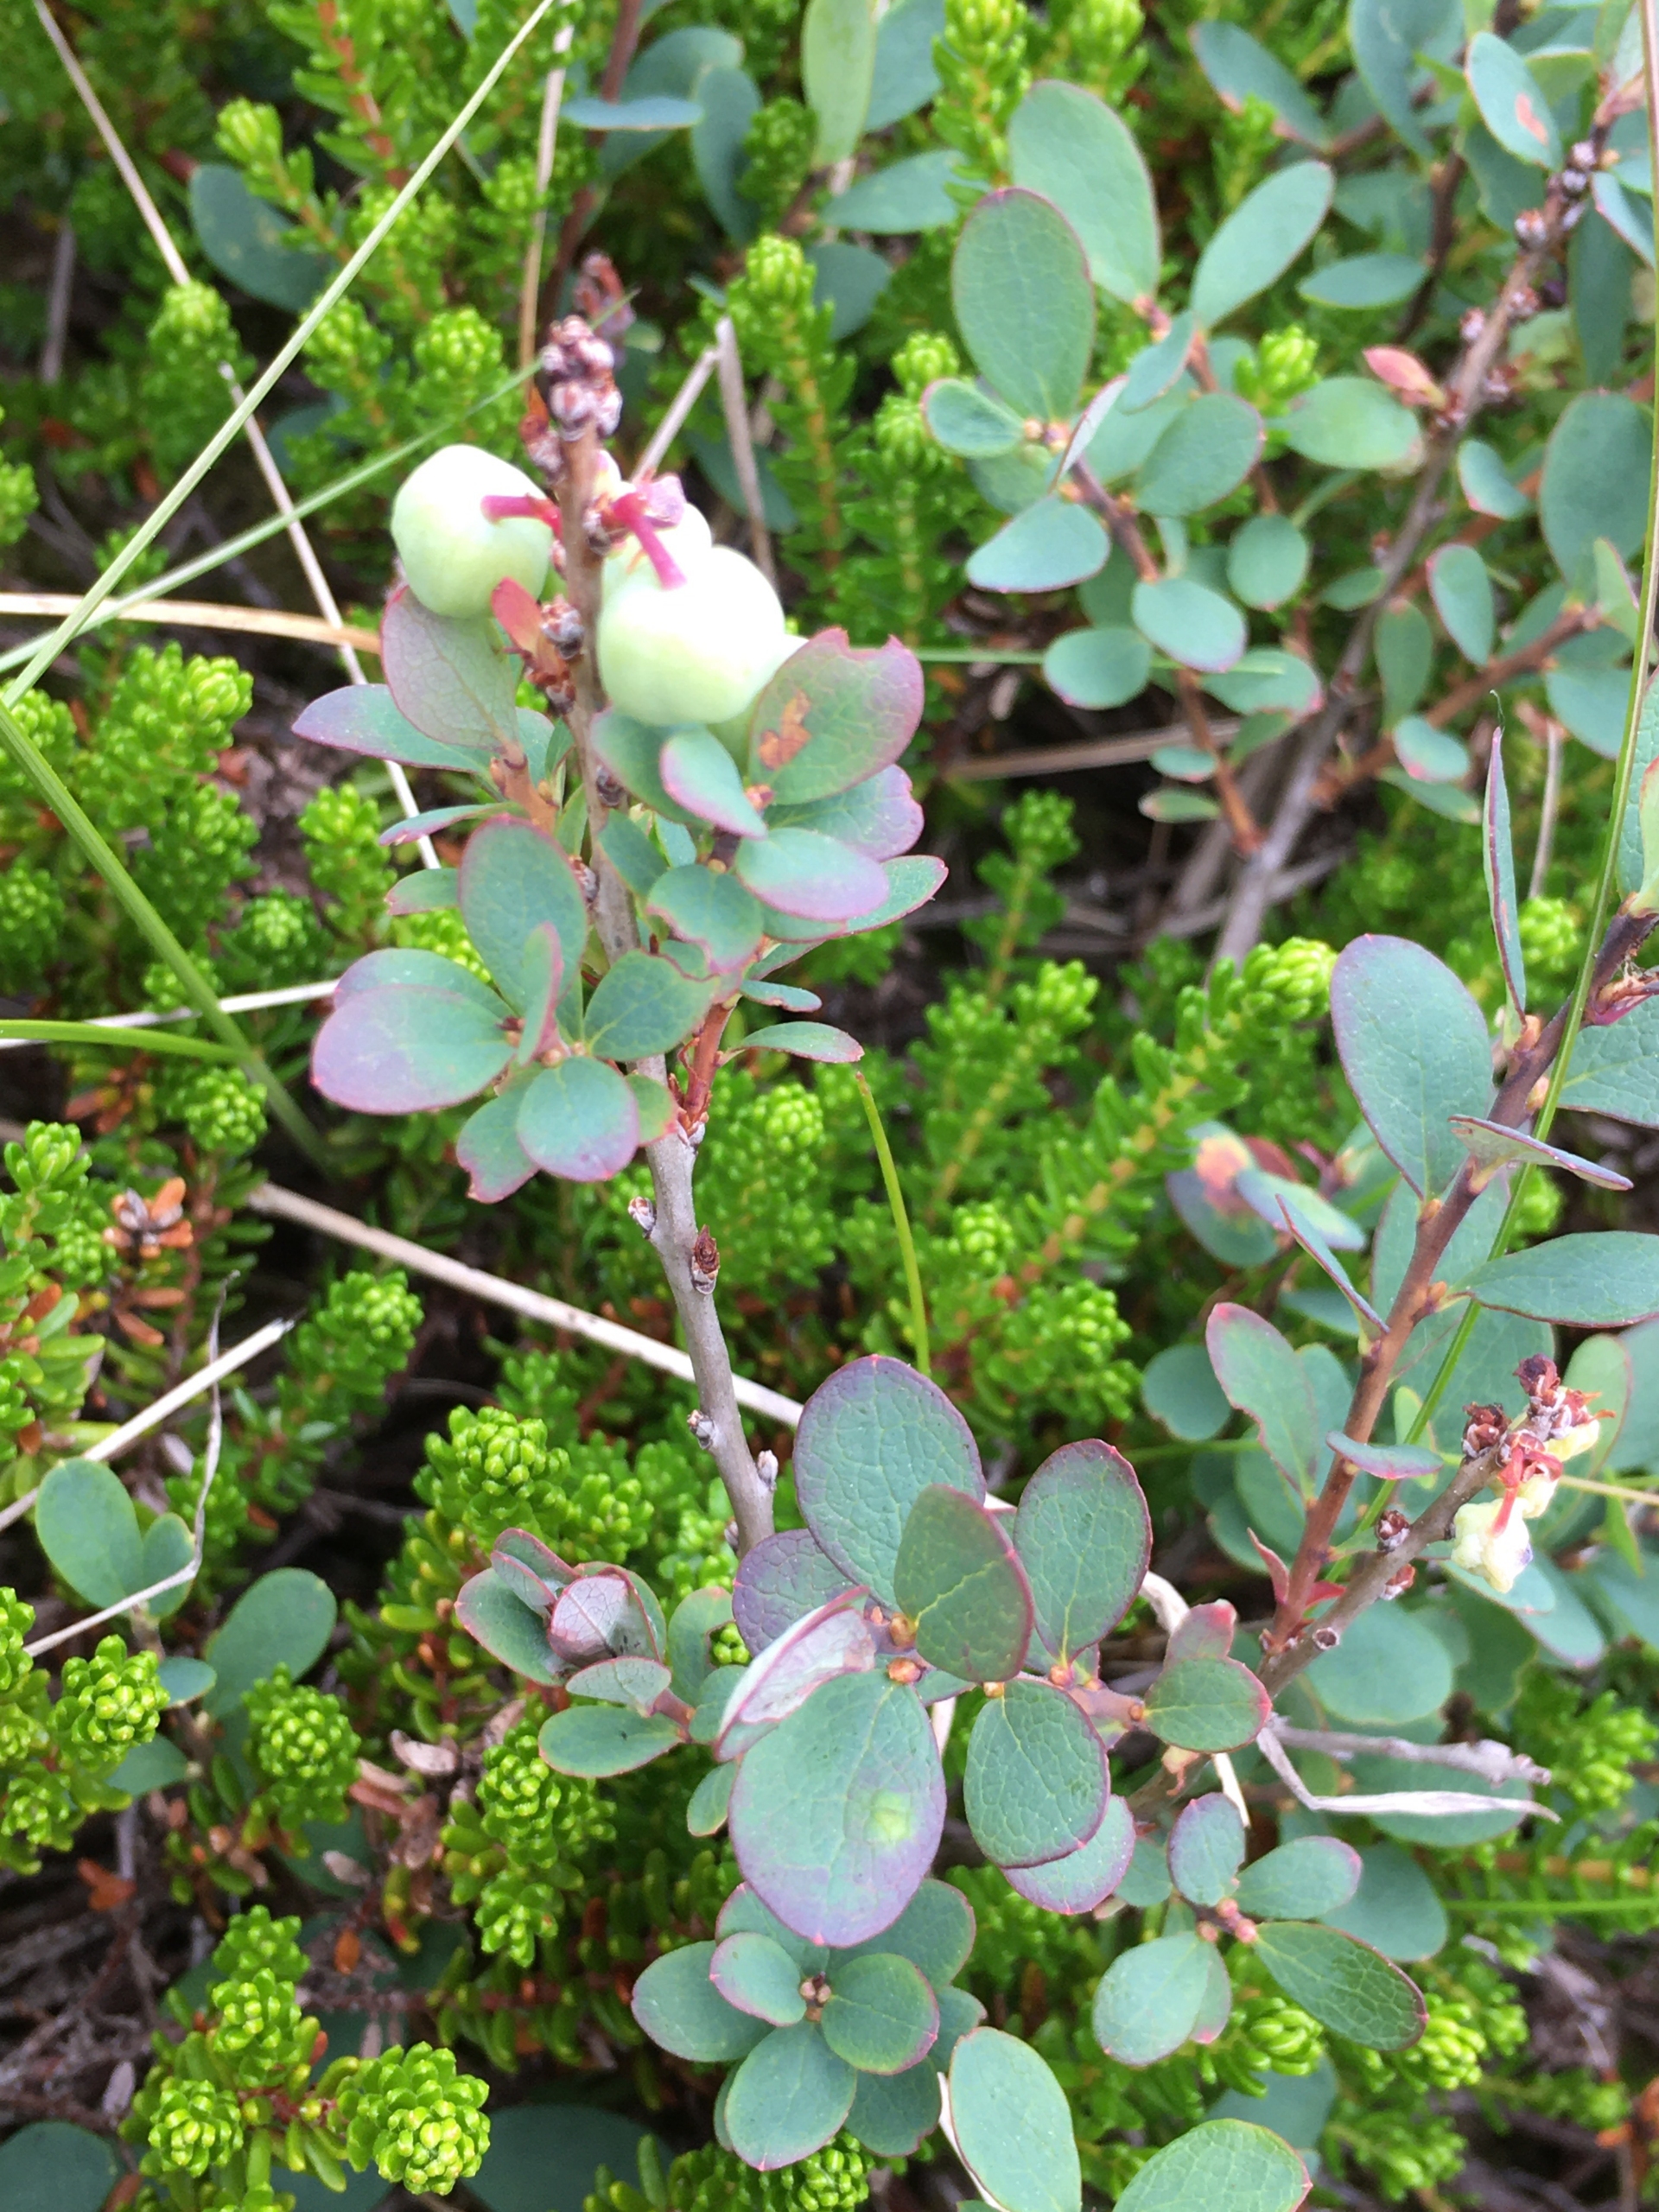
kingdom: Plantae
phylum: Tracheophyta
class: Magnoliopsida
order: Ericales
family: Ericaceae
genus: Vaccinium
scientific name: Vaccinium uliginosum
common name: Mose-bølle
